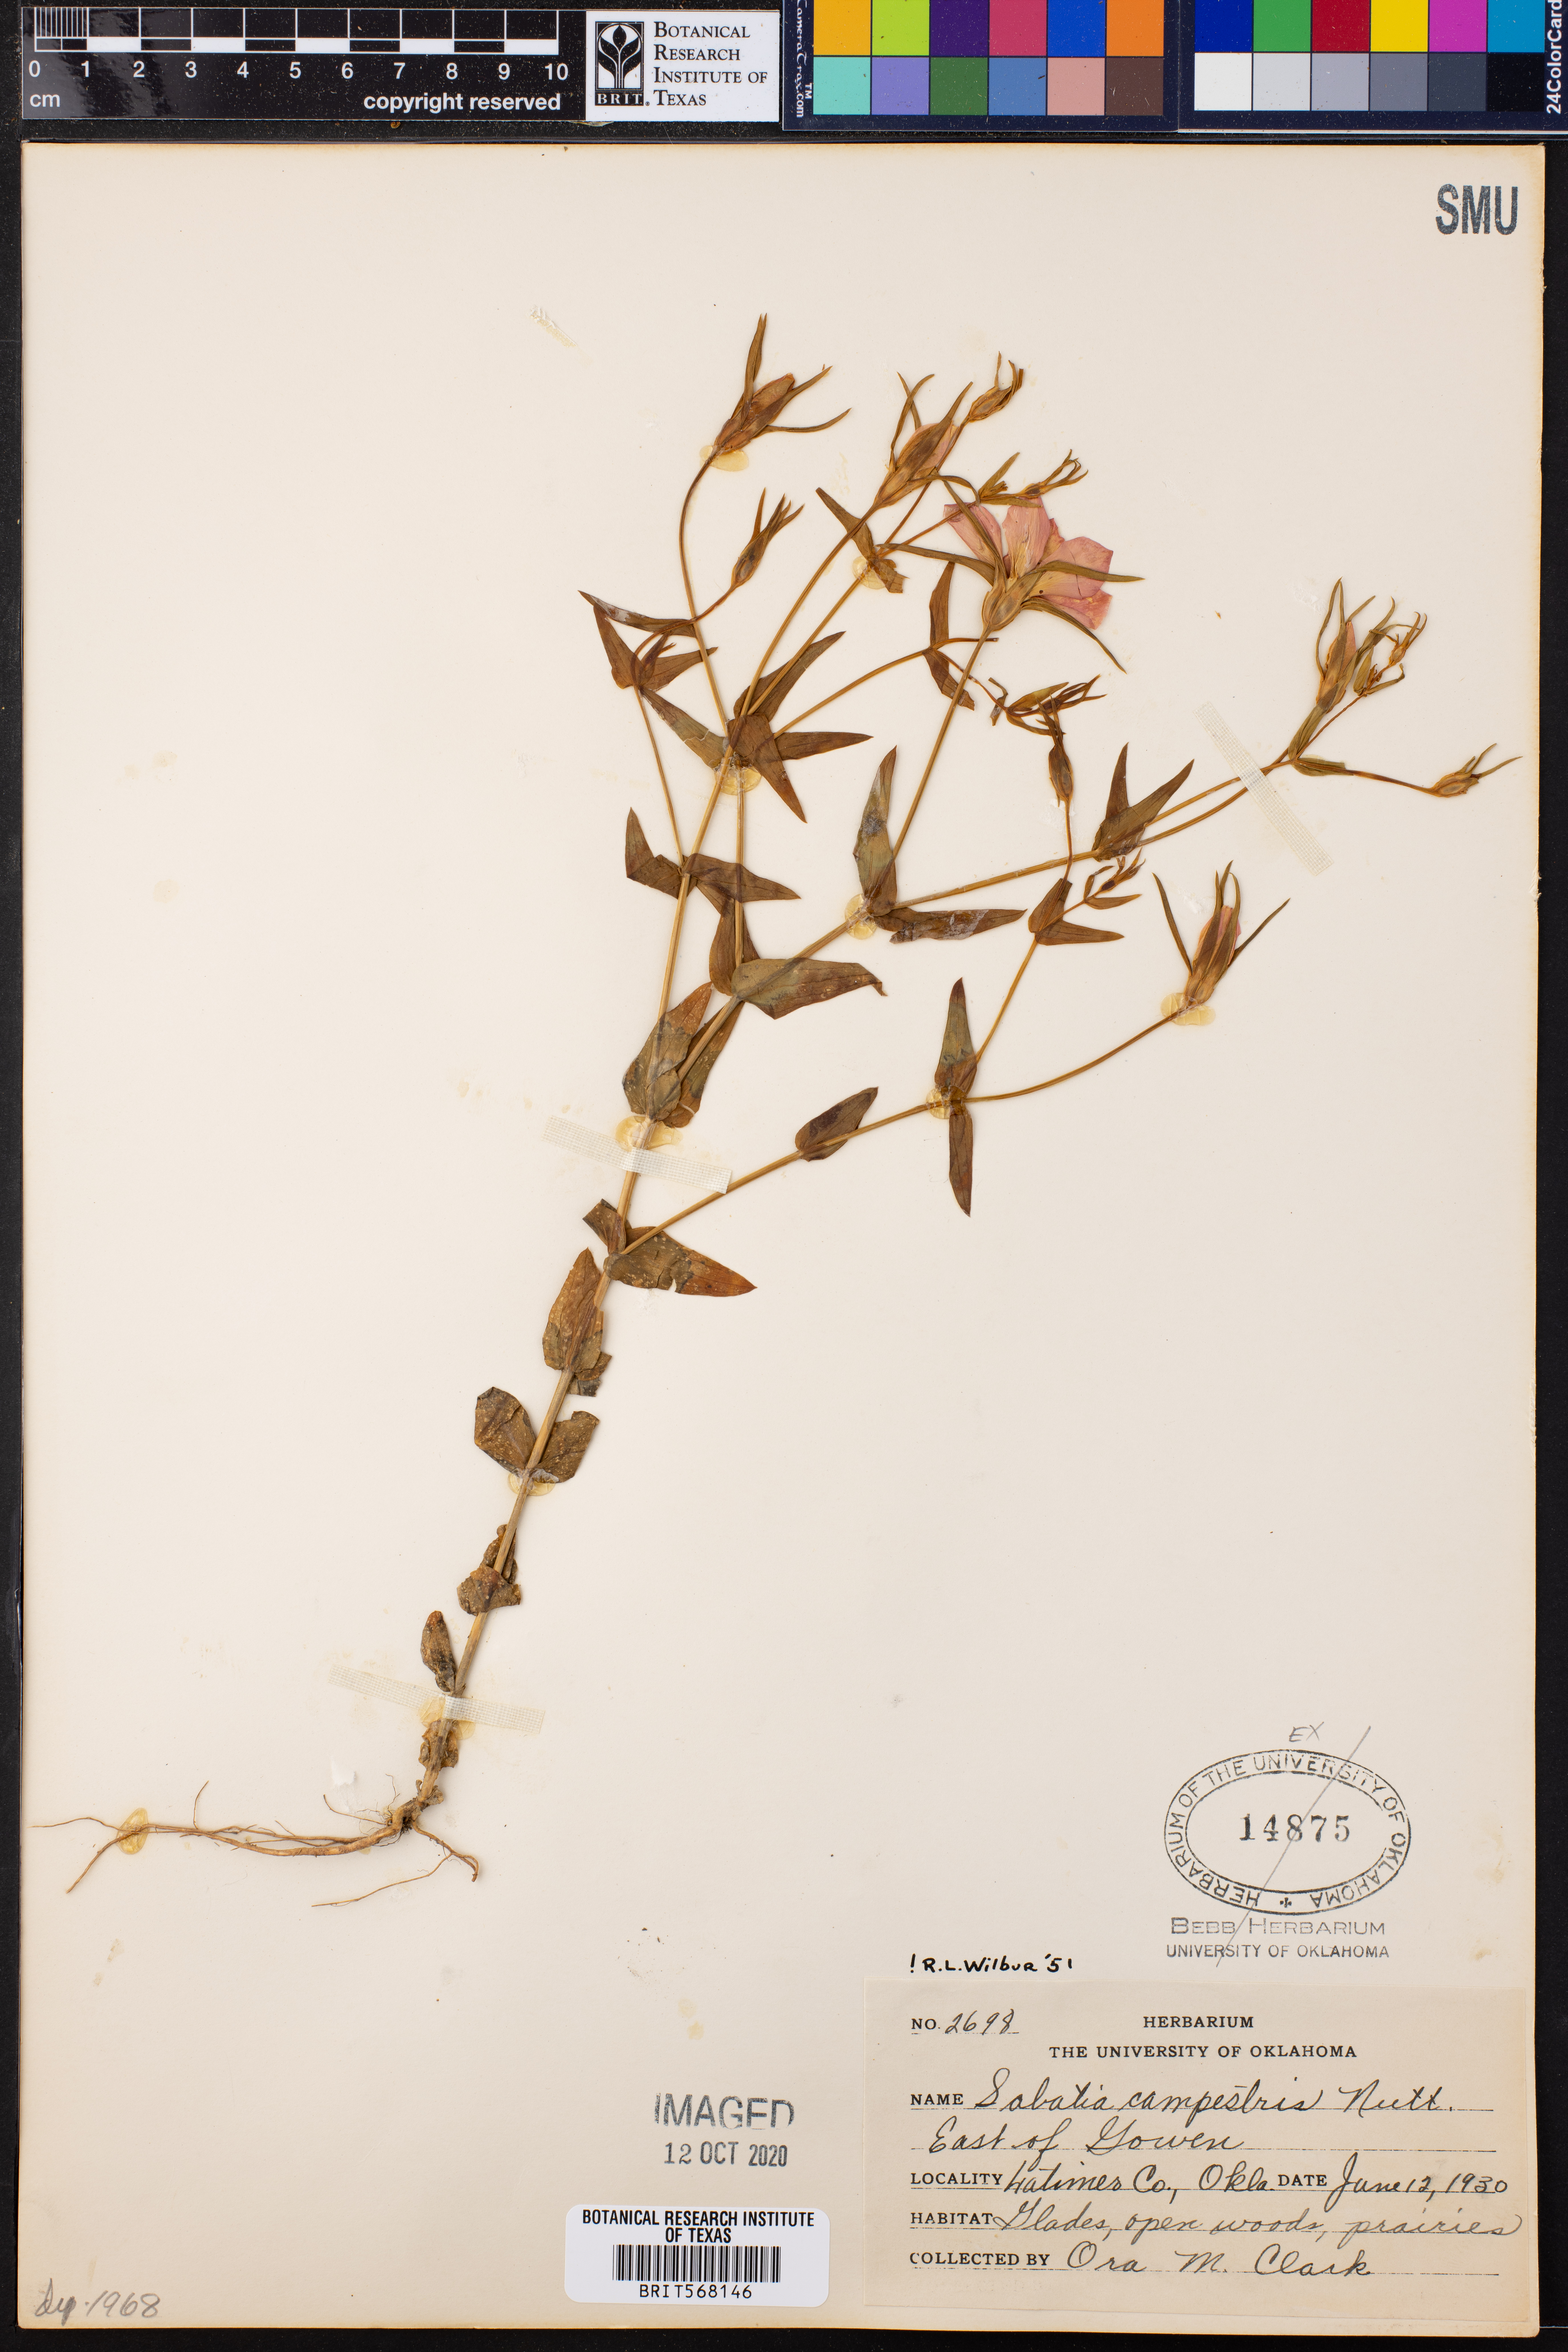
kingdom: Plantae
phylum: Tracheophyta
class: Magnoliopsida
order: Gentianales
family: Gentianaceae
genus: Sabatia
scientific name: Sabatia campestris
